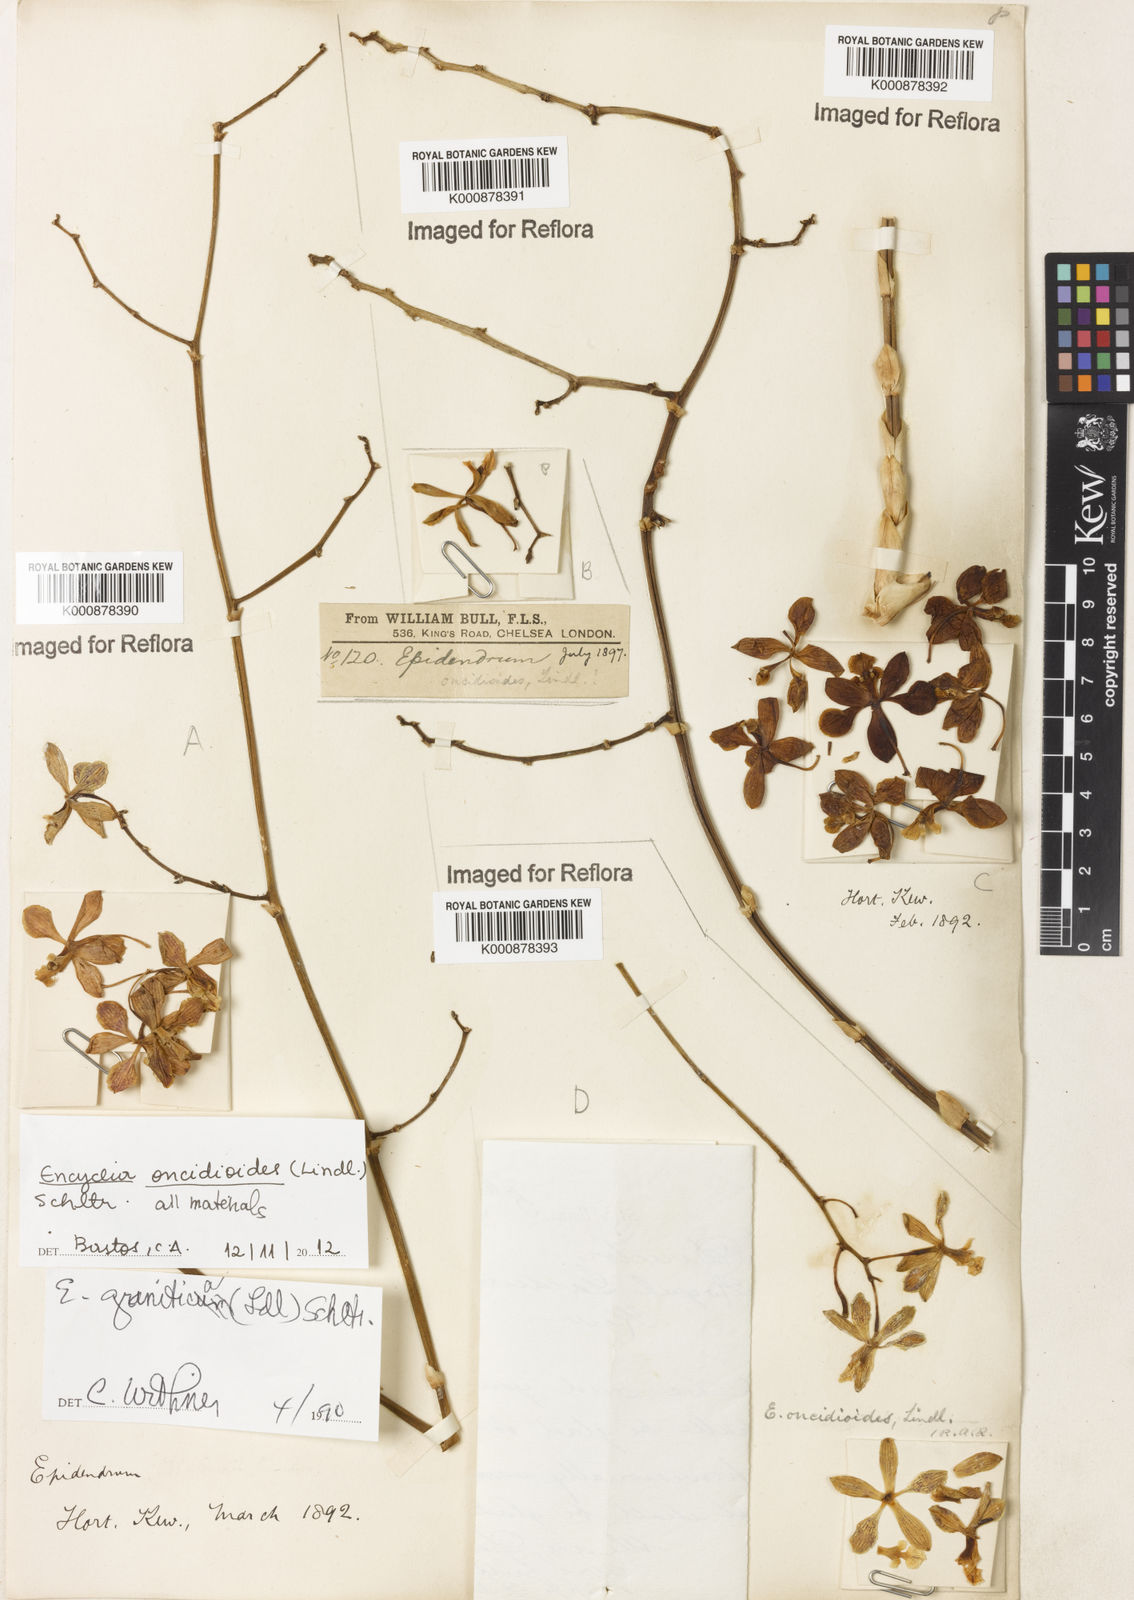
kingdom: Plantae
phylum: Tracheophyta
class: Liliopsida
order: Asparagales
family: Orchidaceae
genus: Encyclia
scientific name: Encyclia oncidioides
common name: Heavyfruit butterfly orchid
